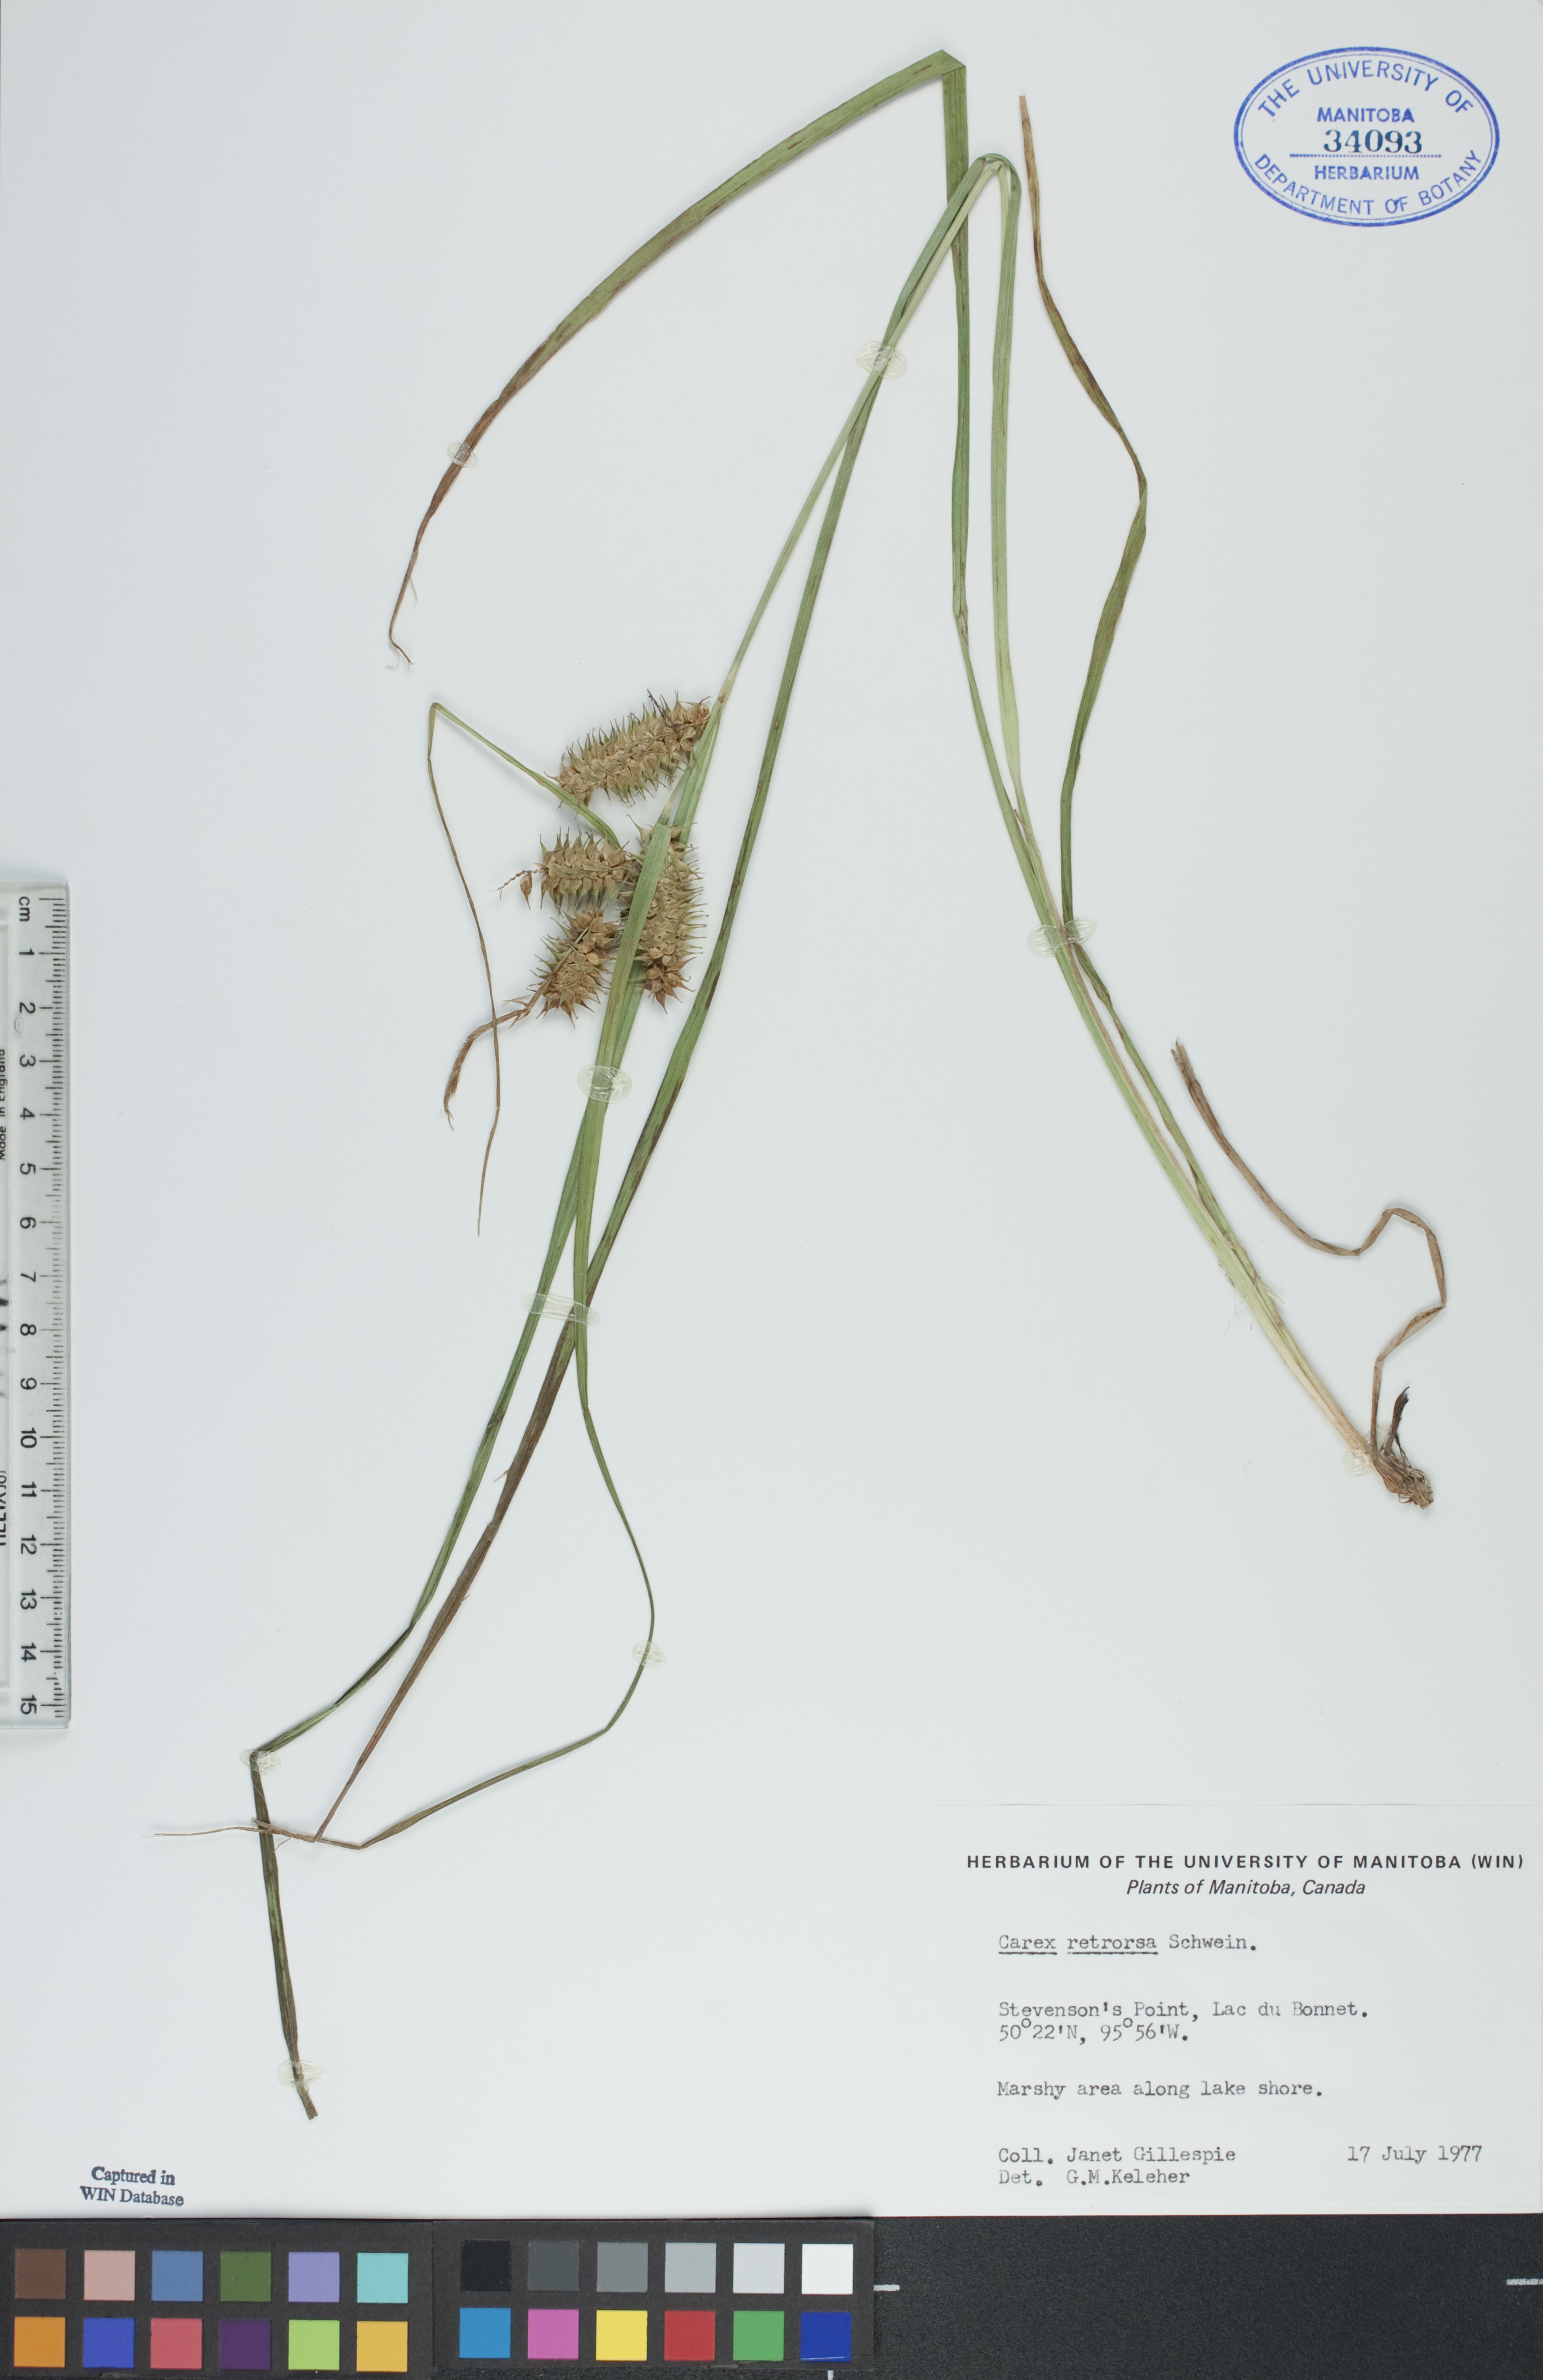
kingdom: Plantae
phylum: Tracheophyta
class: Liliopsida
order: Poales
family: Cyperaceae
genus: Carex
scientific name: Carex retrorsa
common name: Knot-sheath sedge
